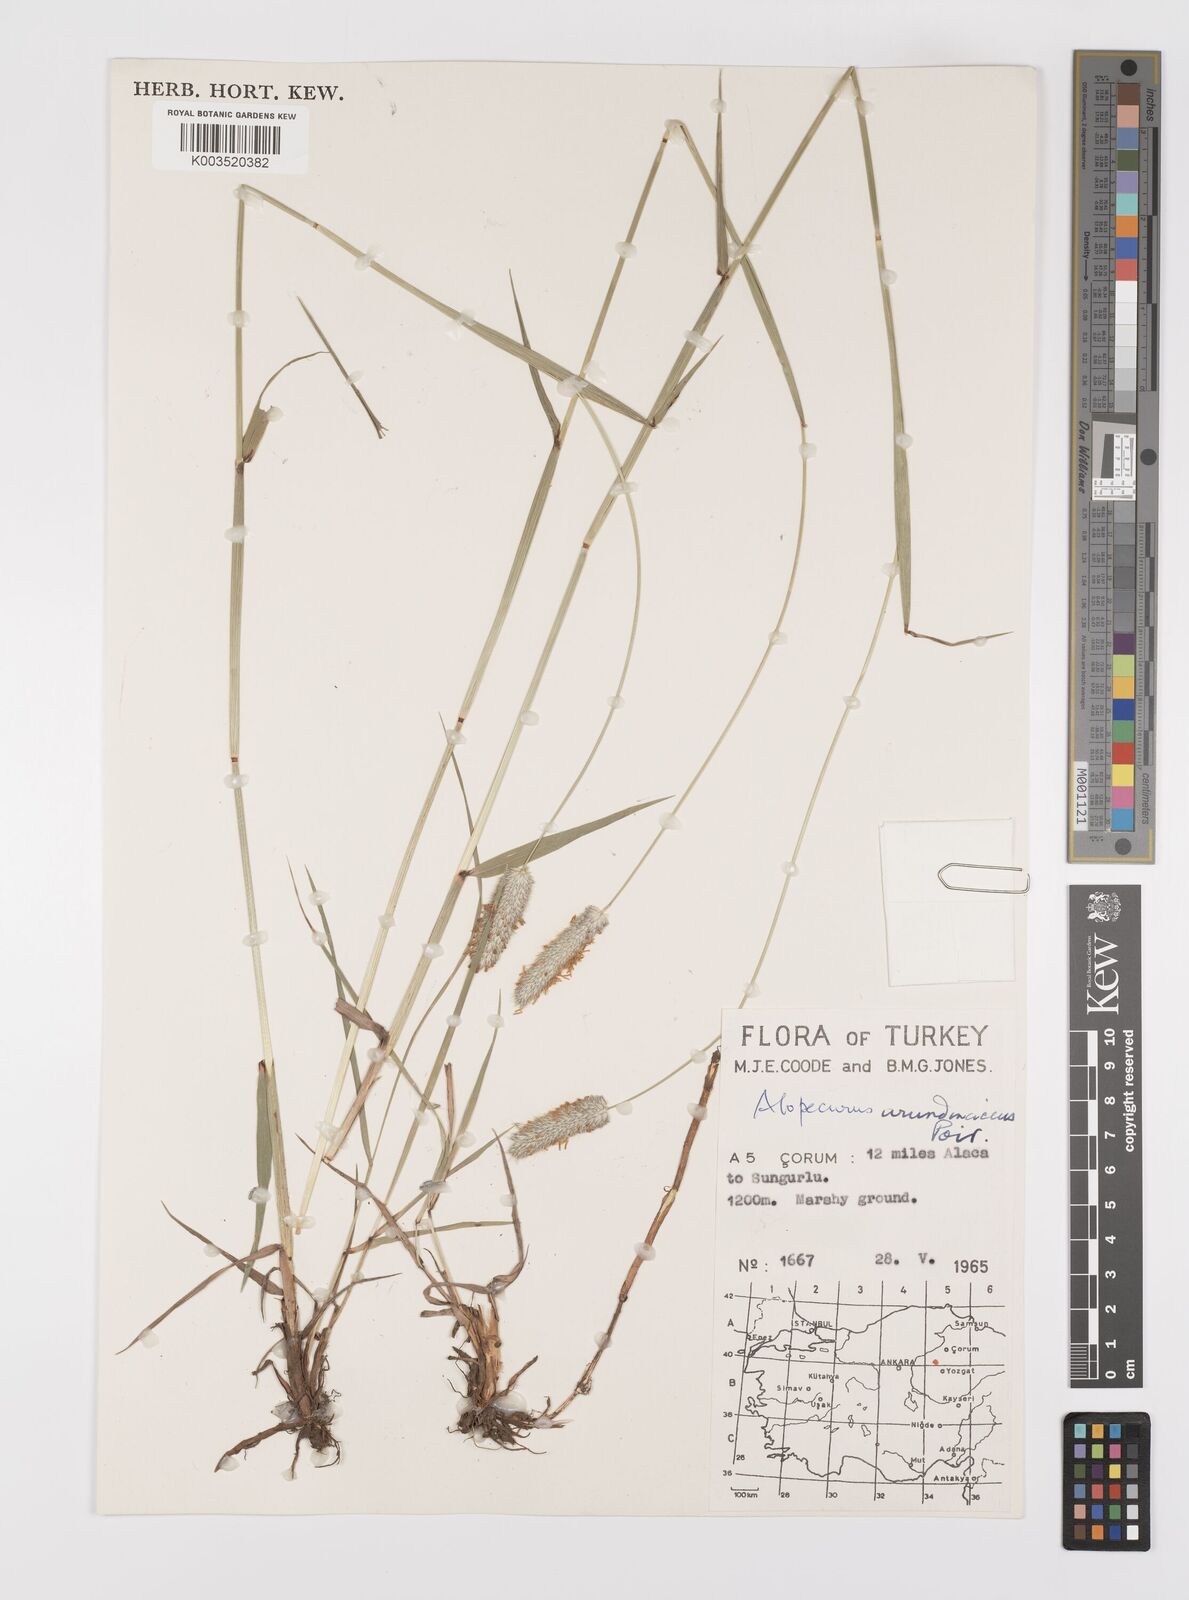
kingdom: Plantae
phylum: Tracheophyta
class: Liliopsida
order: Poales
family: Poaceae
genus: Alopecurus
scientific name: Alopecurus arundinaceus
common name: Creeping meadow foxtail
